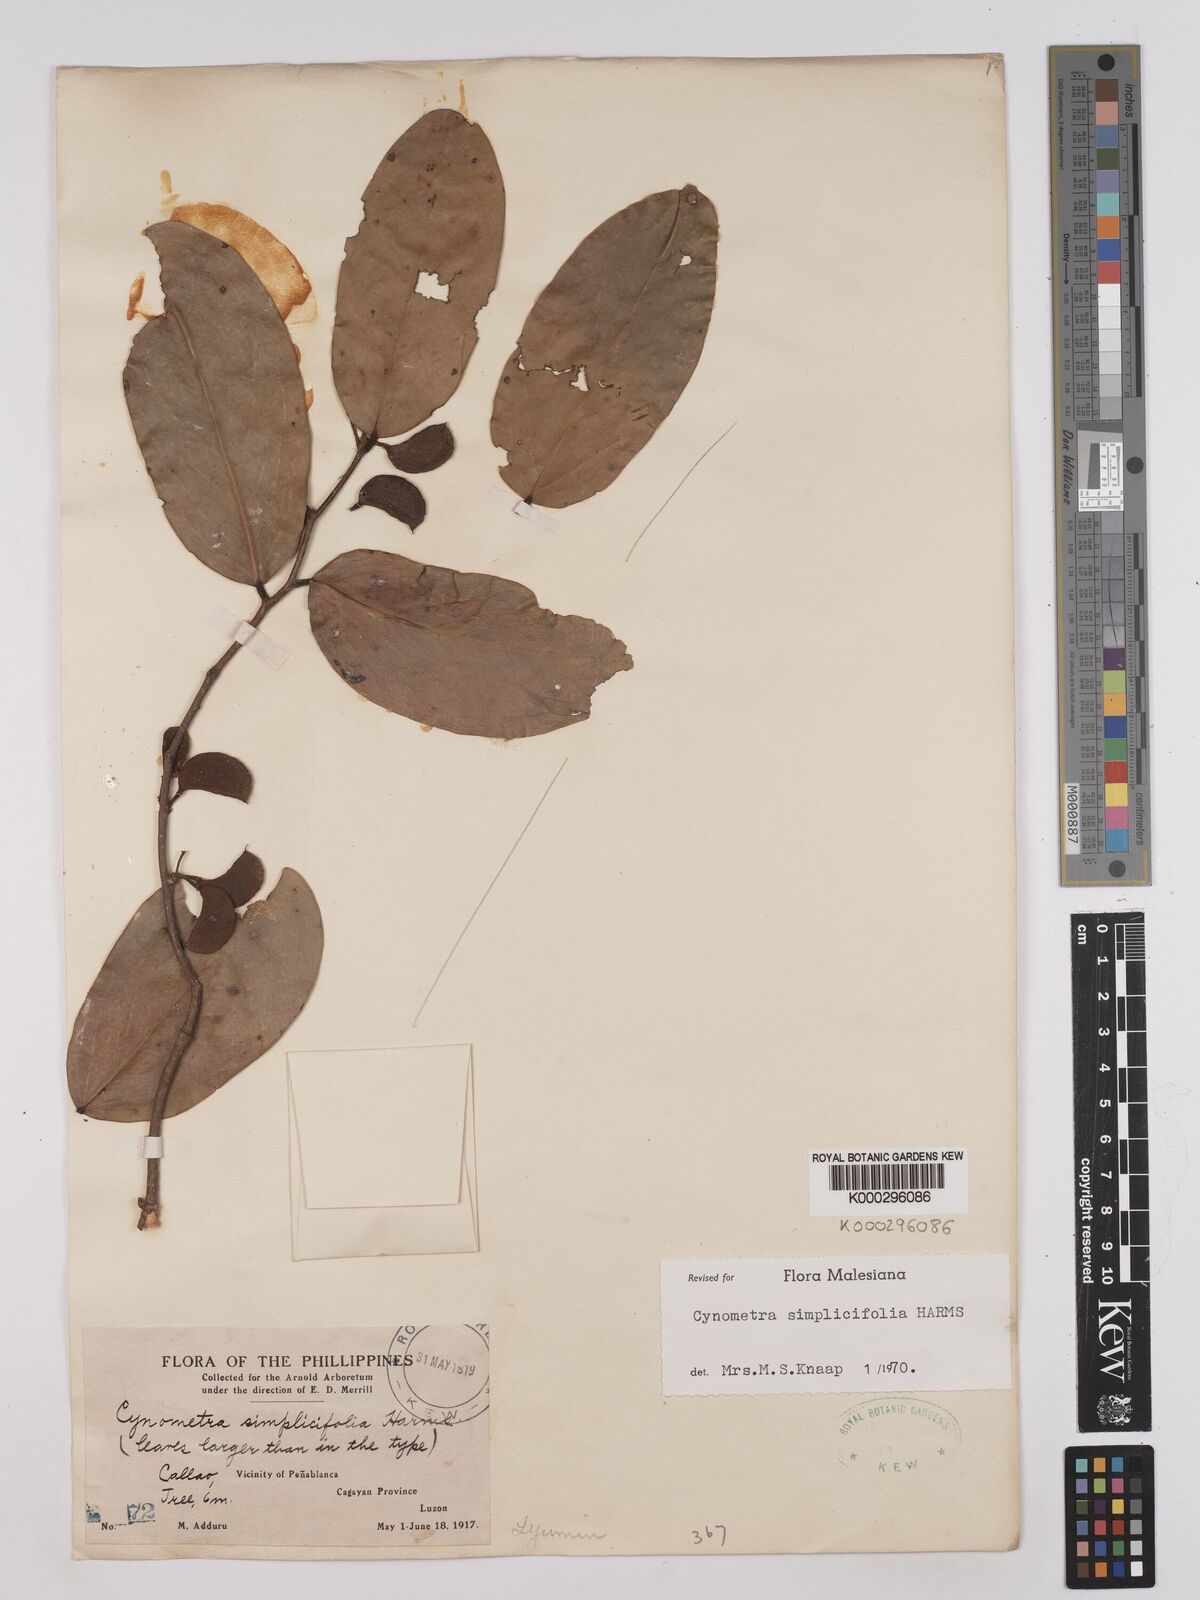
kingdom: Plantae
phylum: Tracheophyta
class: Magnoliopsida
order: Fabales
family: Fabaceae
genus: Cynometra
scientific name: Cynometra simplicifolia
